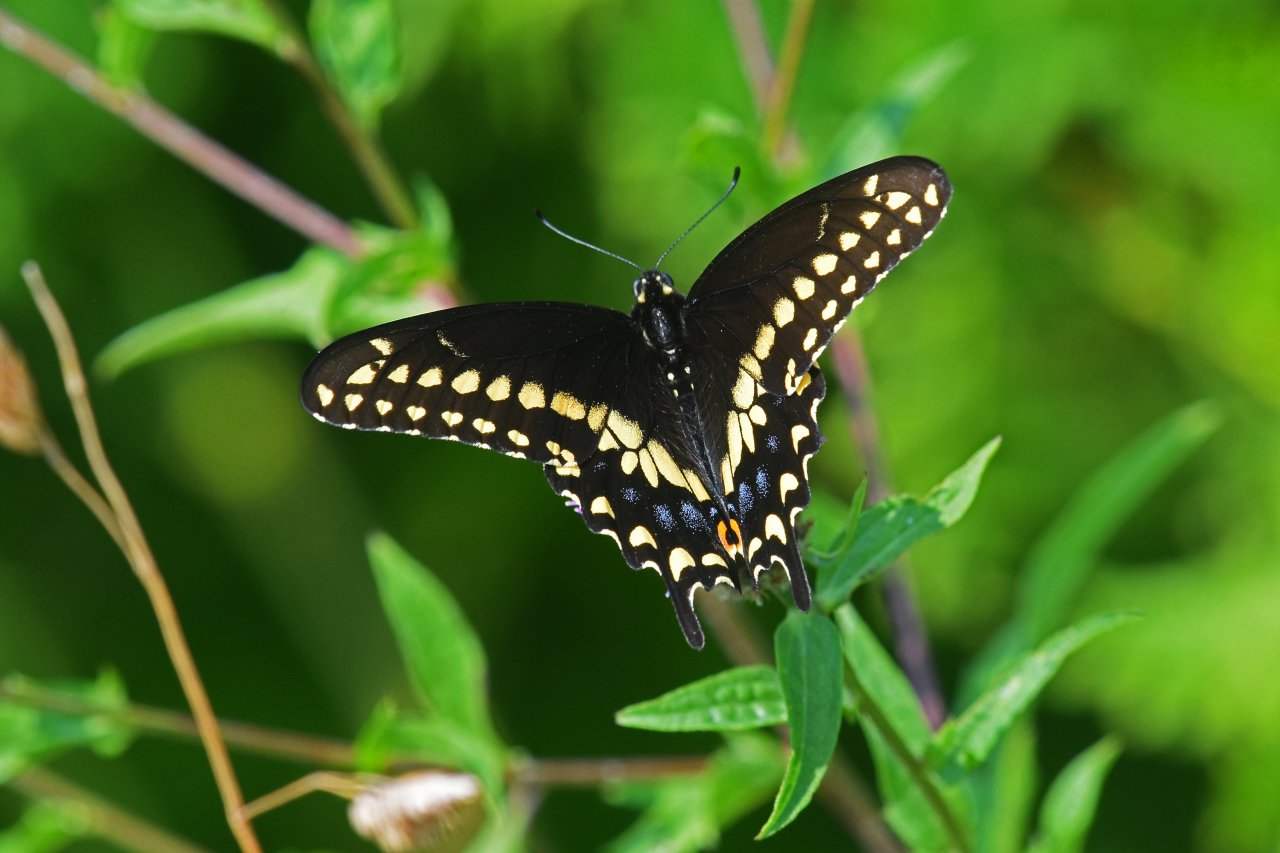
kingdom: Animalia
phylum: Arthropoda
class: Insecta
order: Lepidoptera
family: Papilionidae
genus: Papilio
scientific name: Papilio polyxenes
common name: Black Swallowtail
